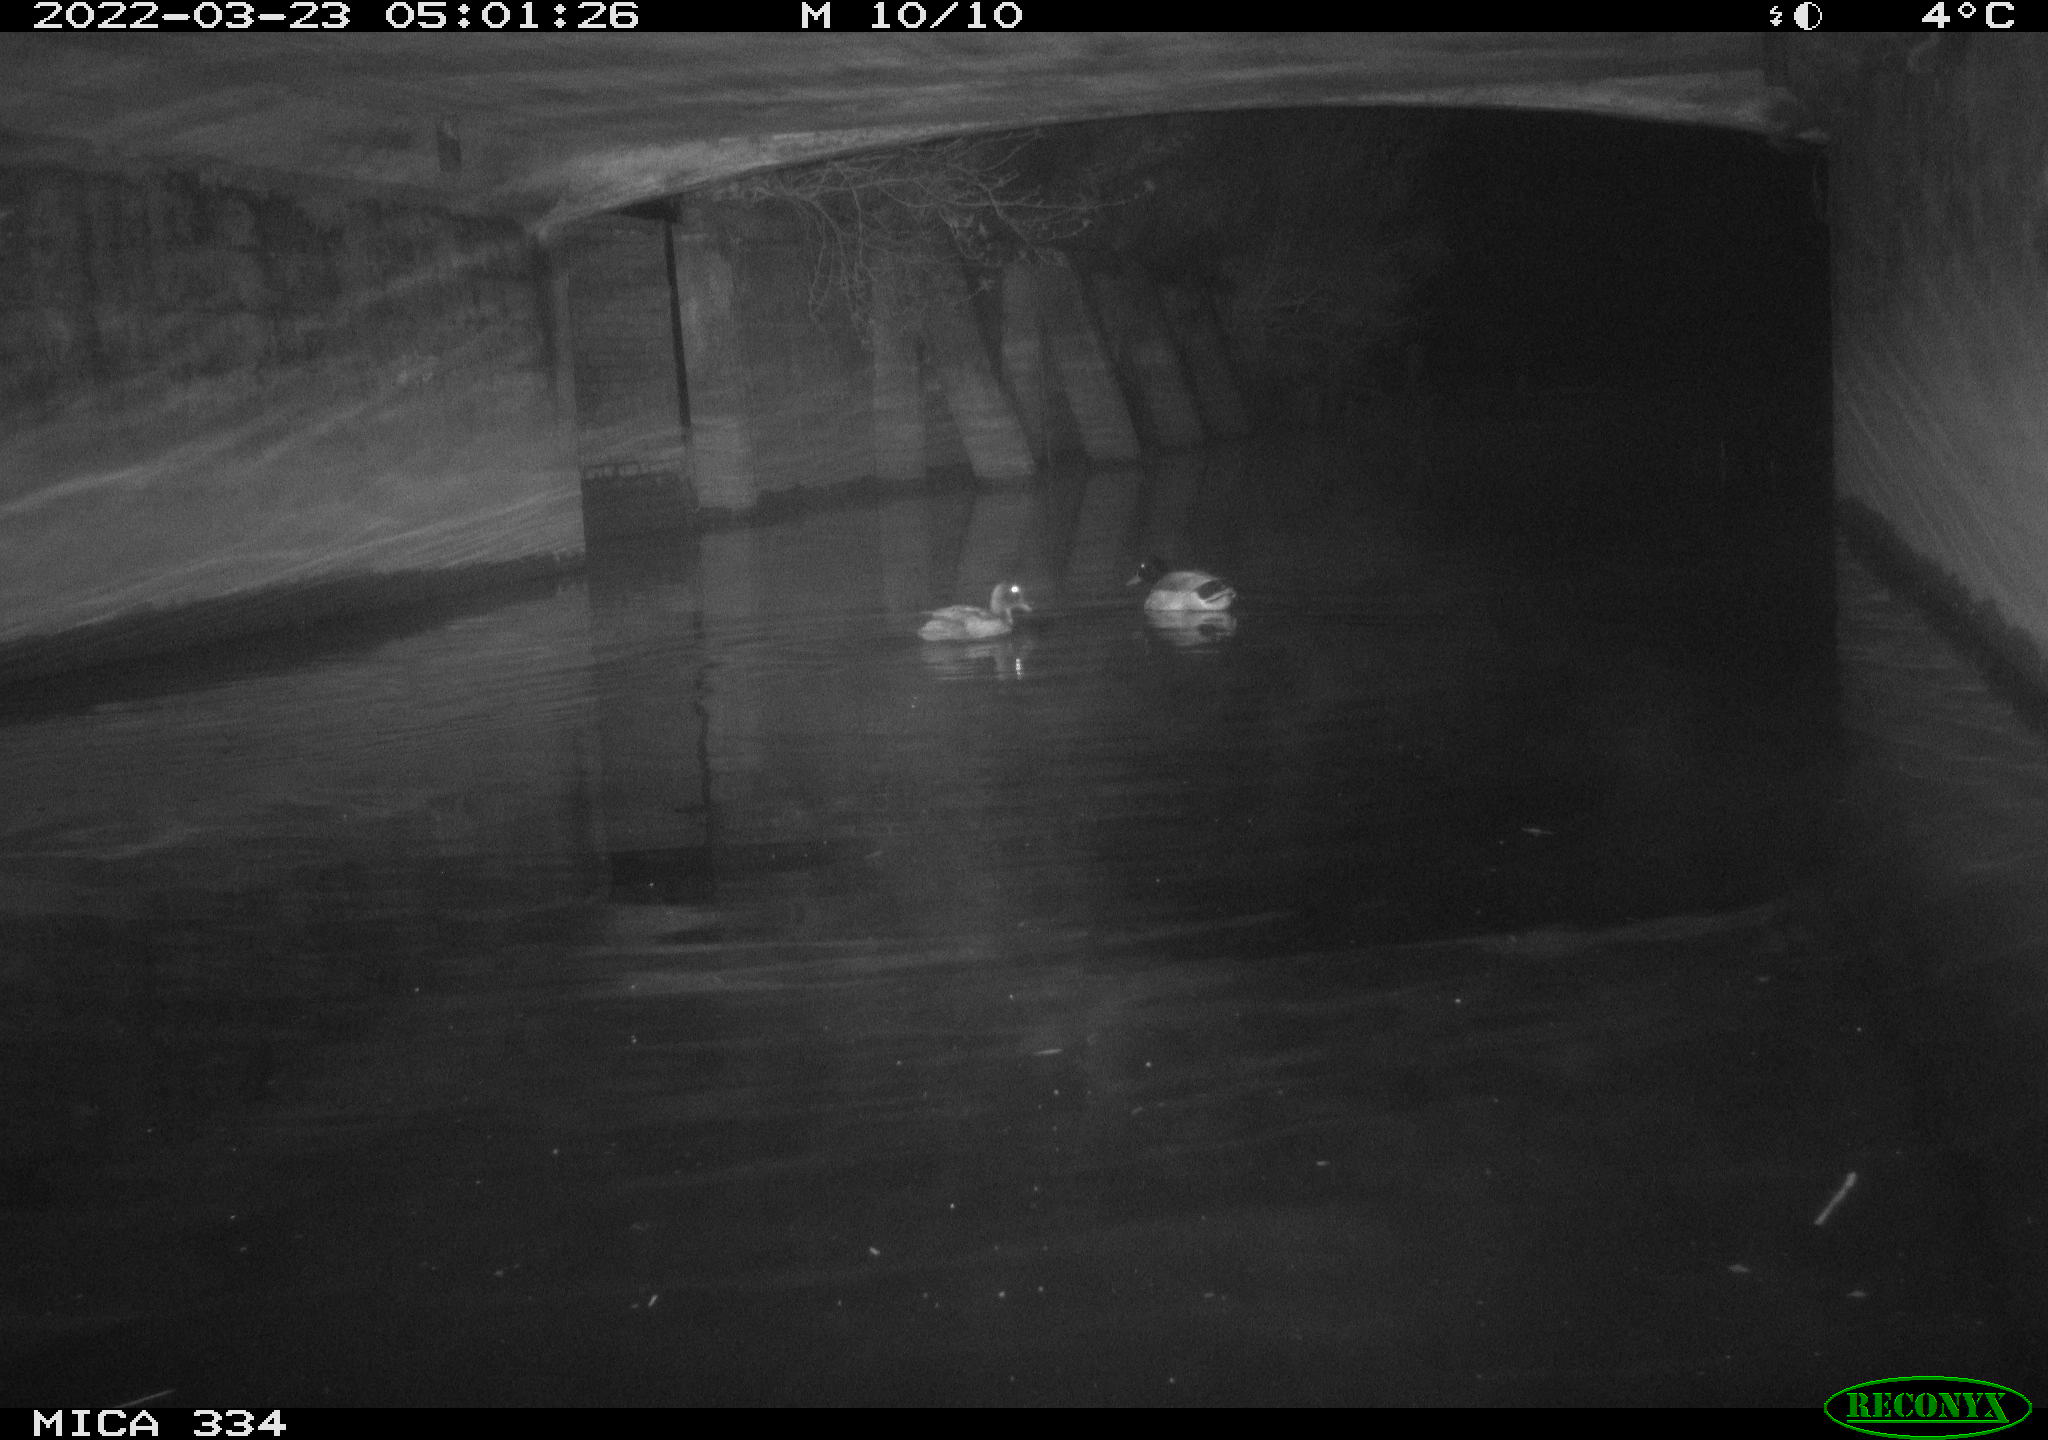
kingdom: Animalia
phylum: Chordata
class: Aves
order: Anseriformes
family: Anatidae
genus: Anas
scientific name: Anas platyrhynchos
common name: Mallard
